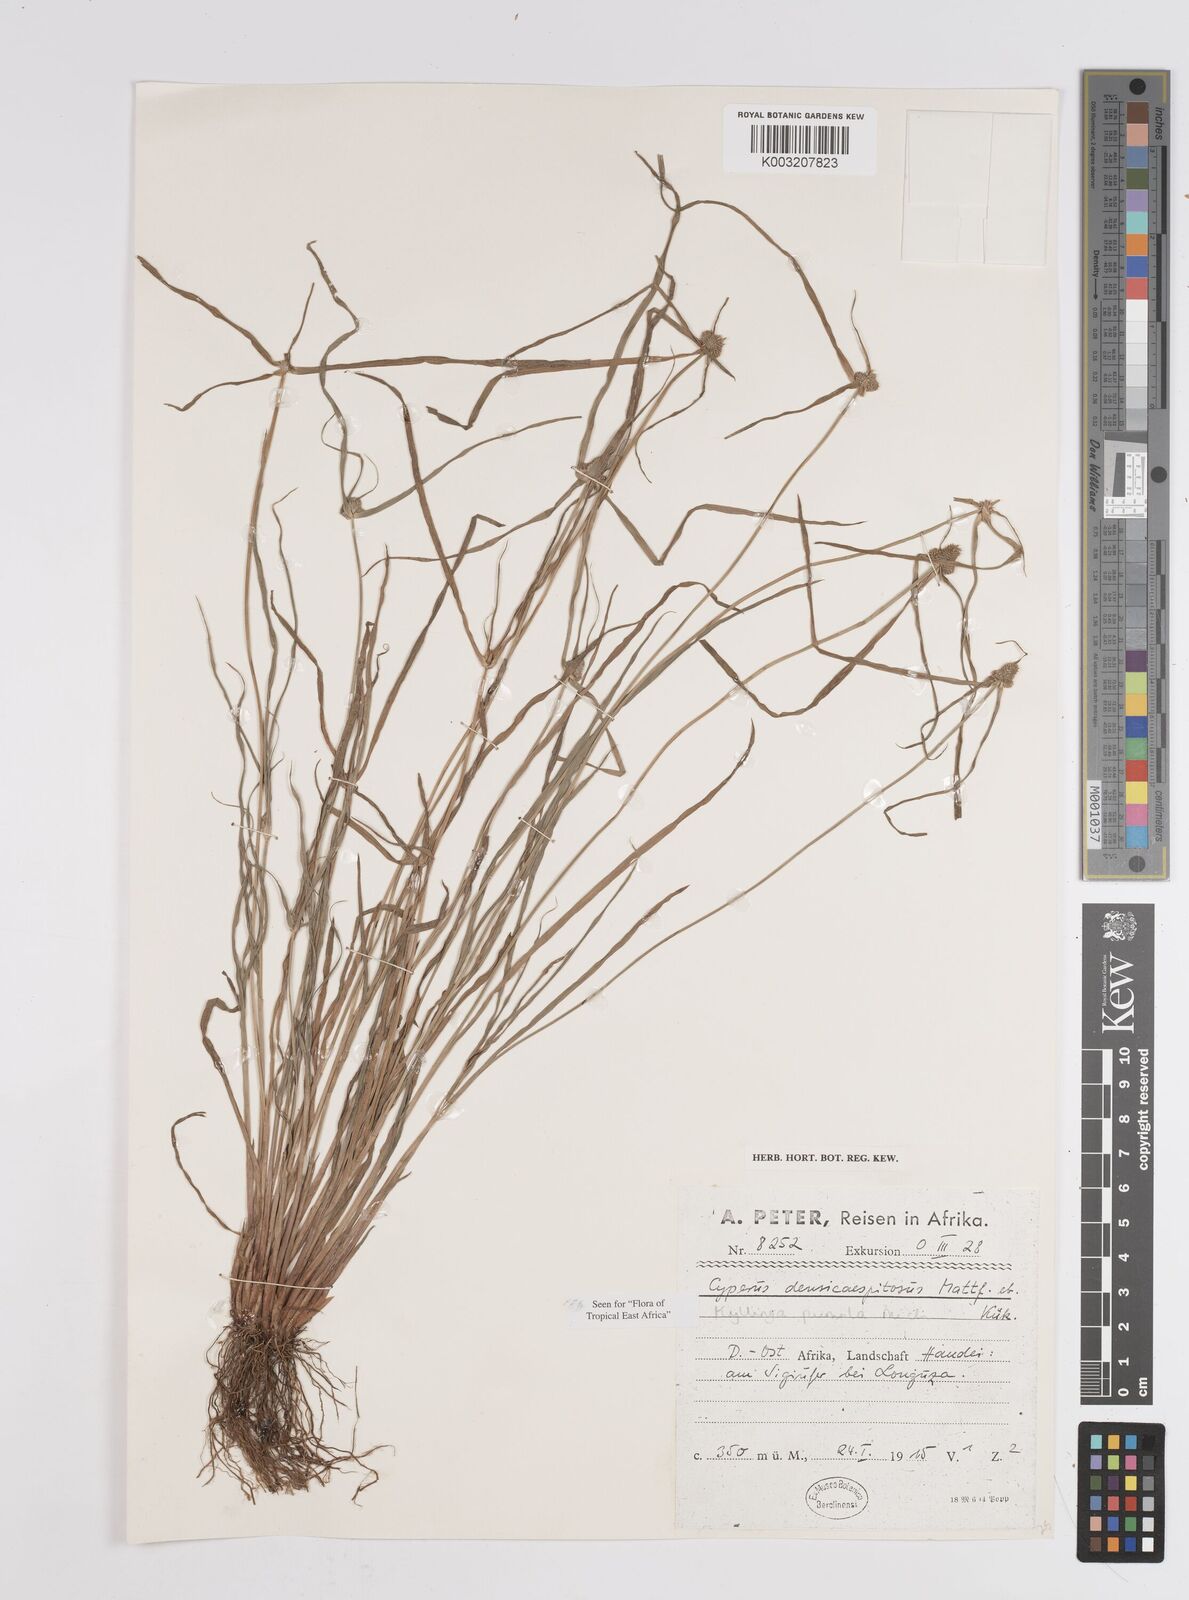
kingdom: Plantae
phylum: Tracheophyta
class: Liliopsida
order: Poales
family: Cyperaceae
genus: Cyperus
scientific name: Cyperus hortensis
